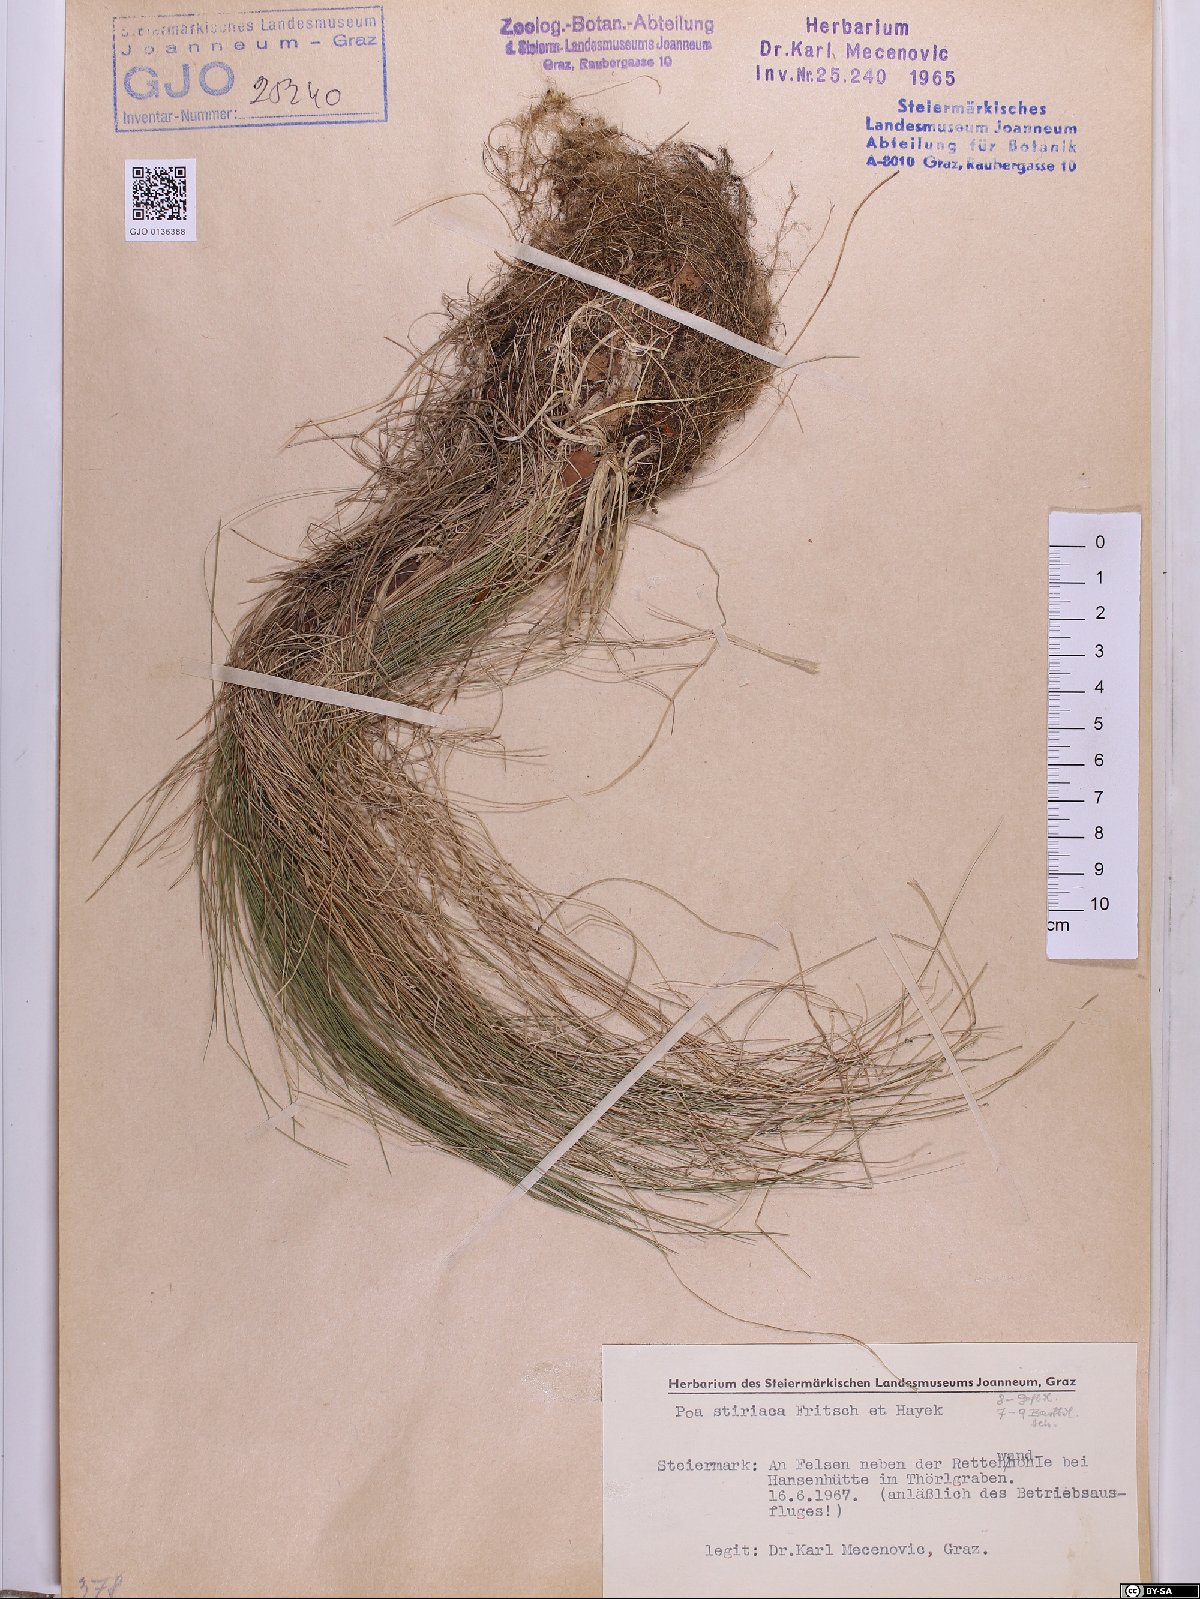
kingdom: Plantae
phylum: Tracheophyta
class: Liliopsida
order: Poales
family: Poaceae
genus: Poa
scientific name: Poa stiriaca
